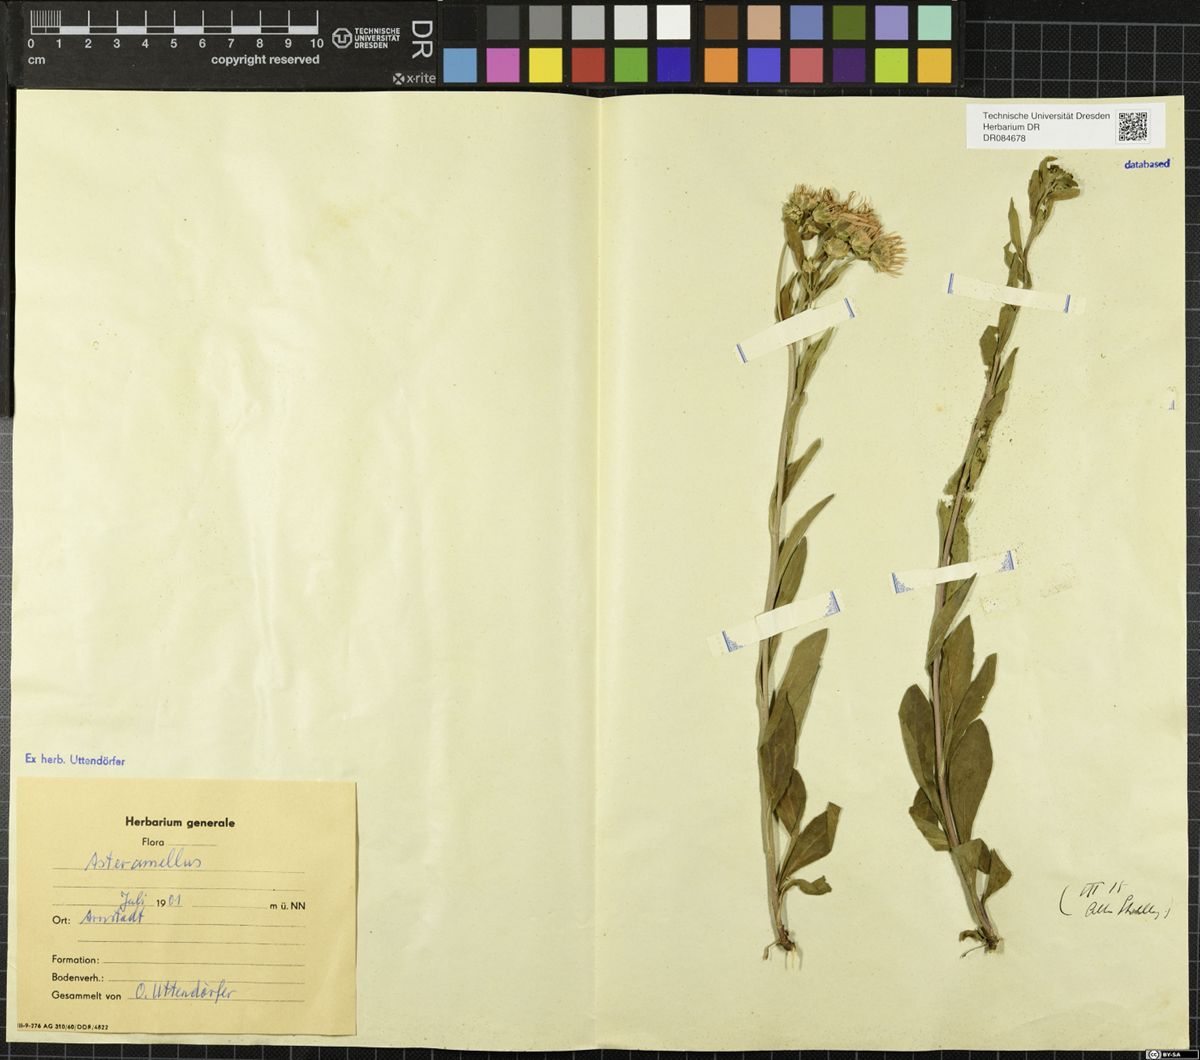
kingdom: Plantae
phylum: Tracheophyta
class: Magnoliopsida
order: Asterales
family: Asteraceae
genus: Aster
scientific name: Aster amellus
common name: European michaelmas daisy
